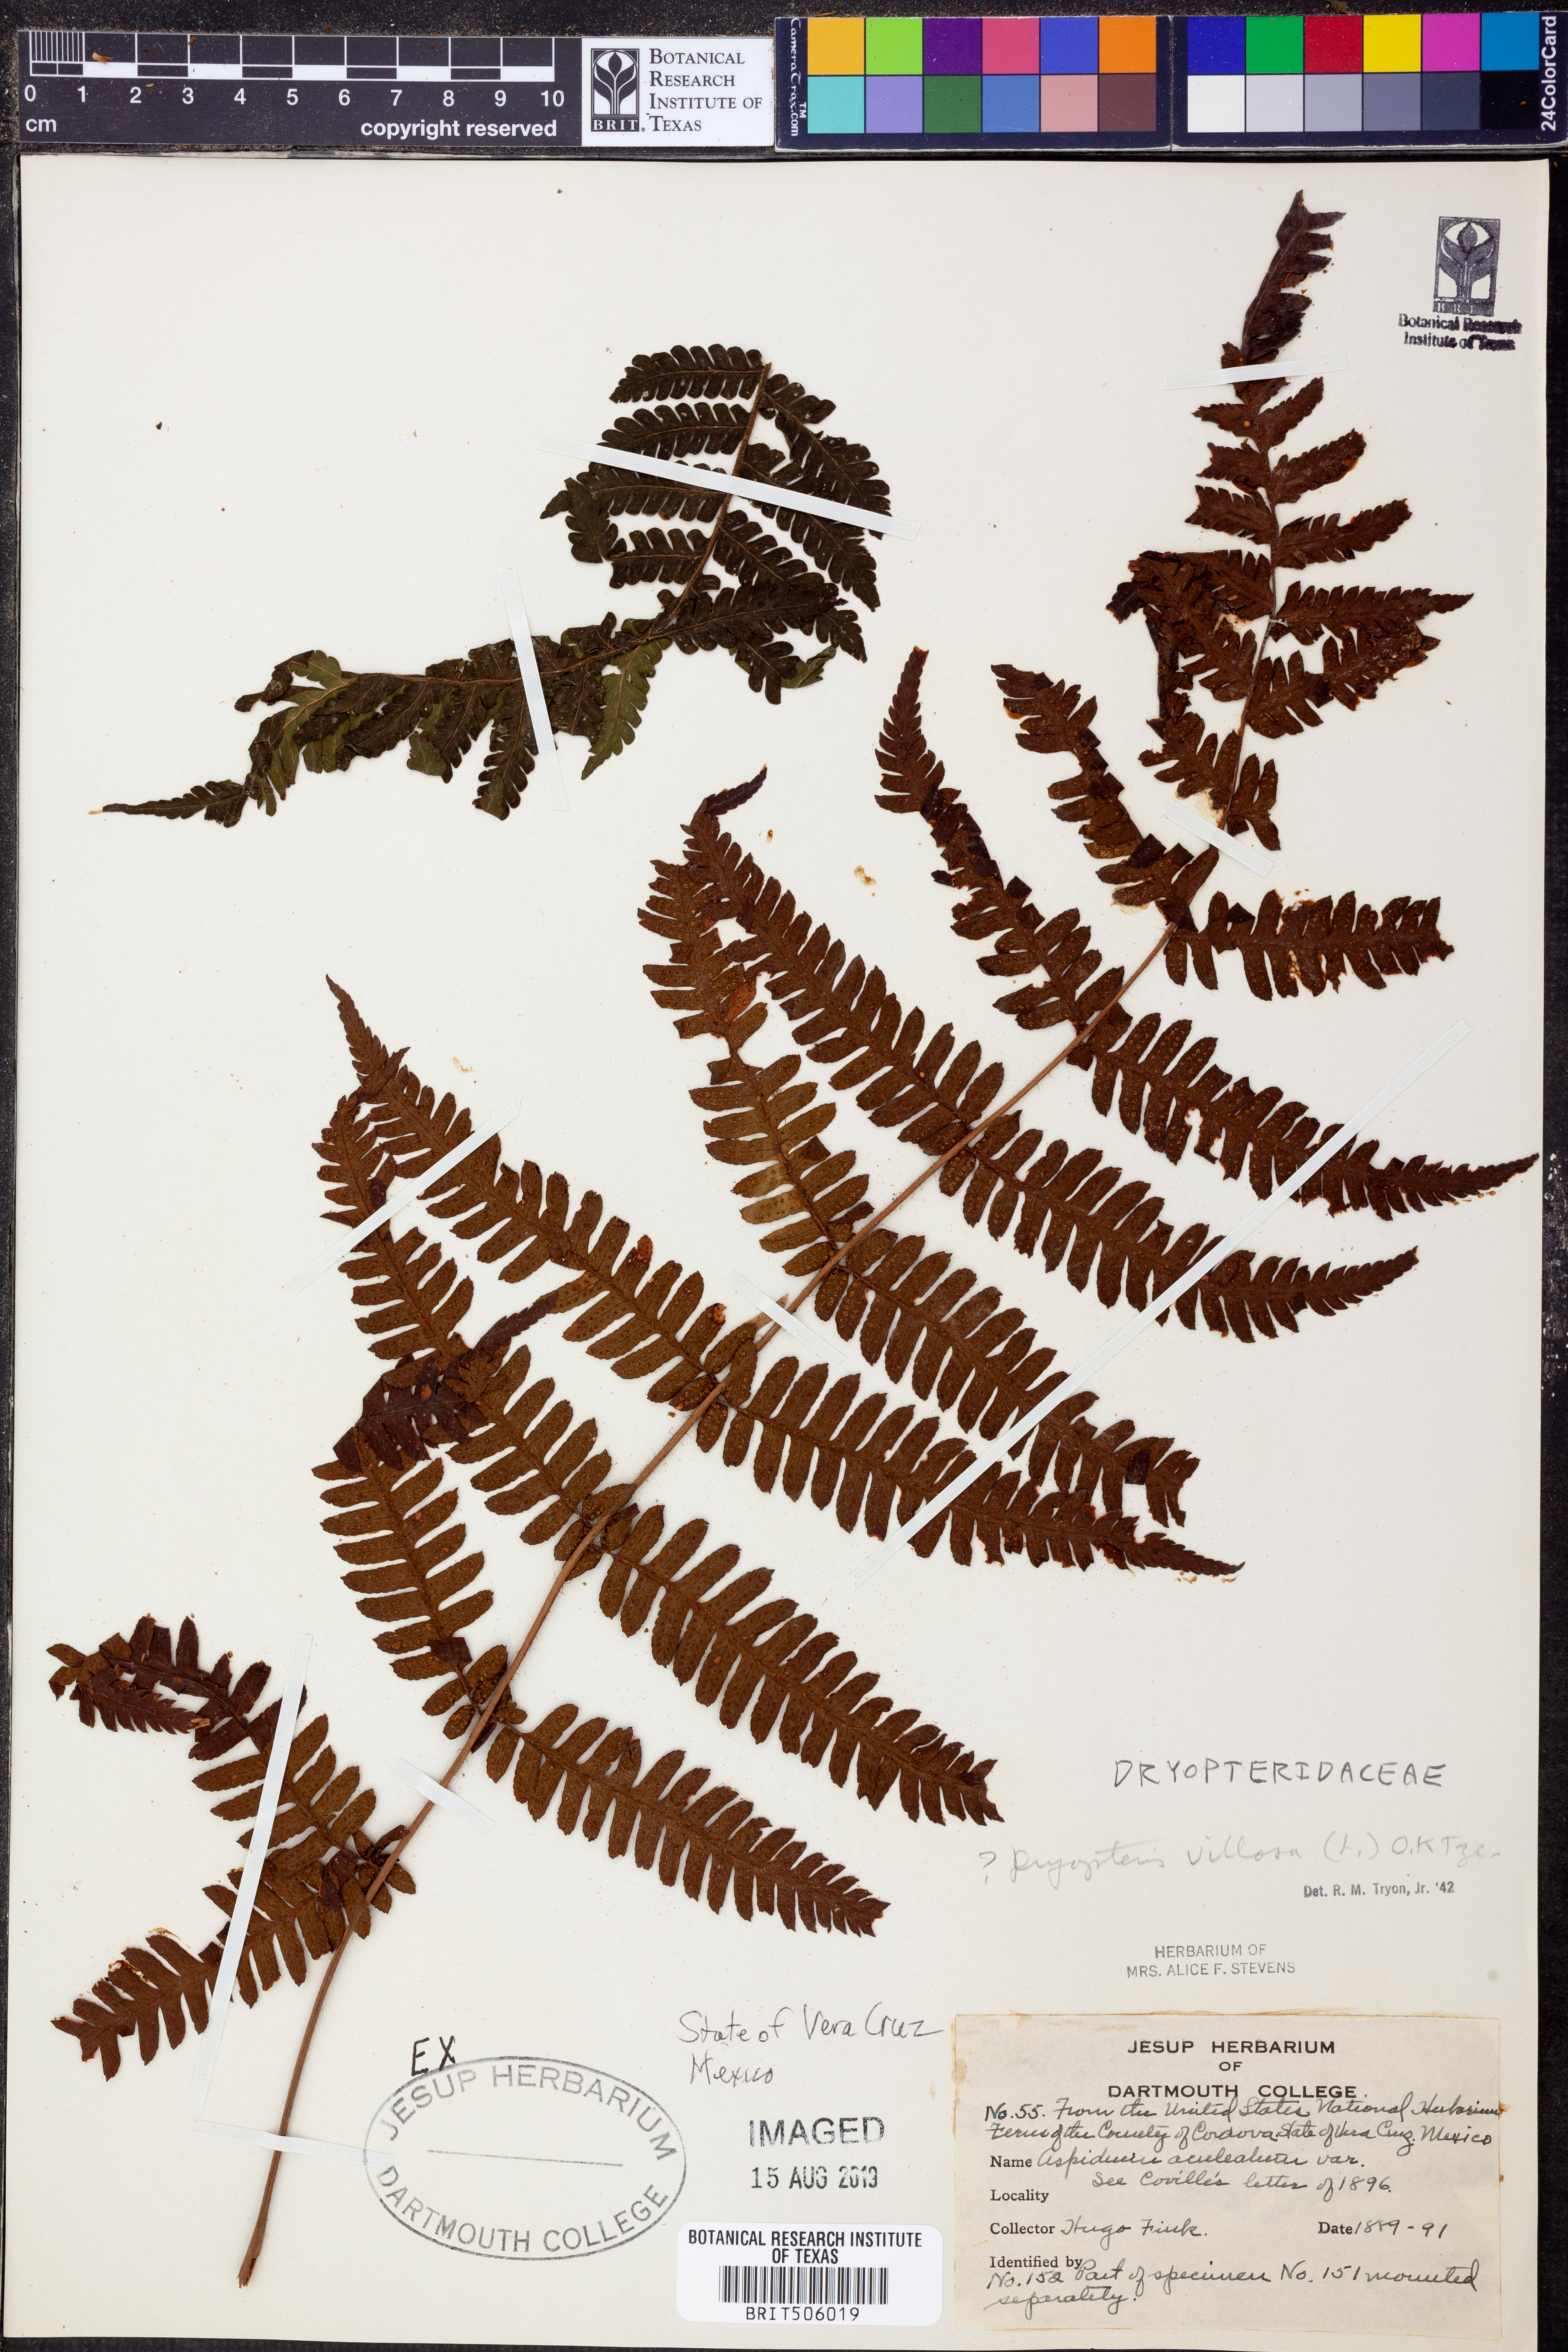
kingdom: Plantae
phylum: Tracheophyta
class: Polypodiopsida
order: Polypodiales
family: Dryopteridaceae
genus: Megalastrum
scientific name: Megalastrum villosum
